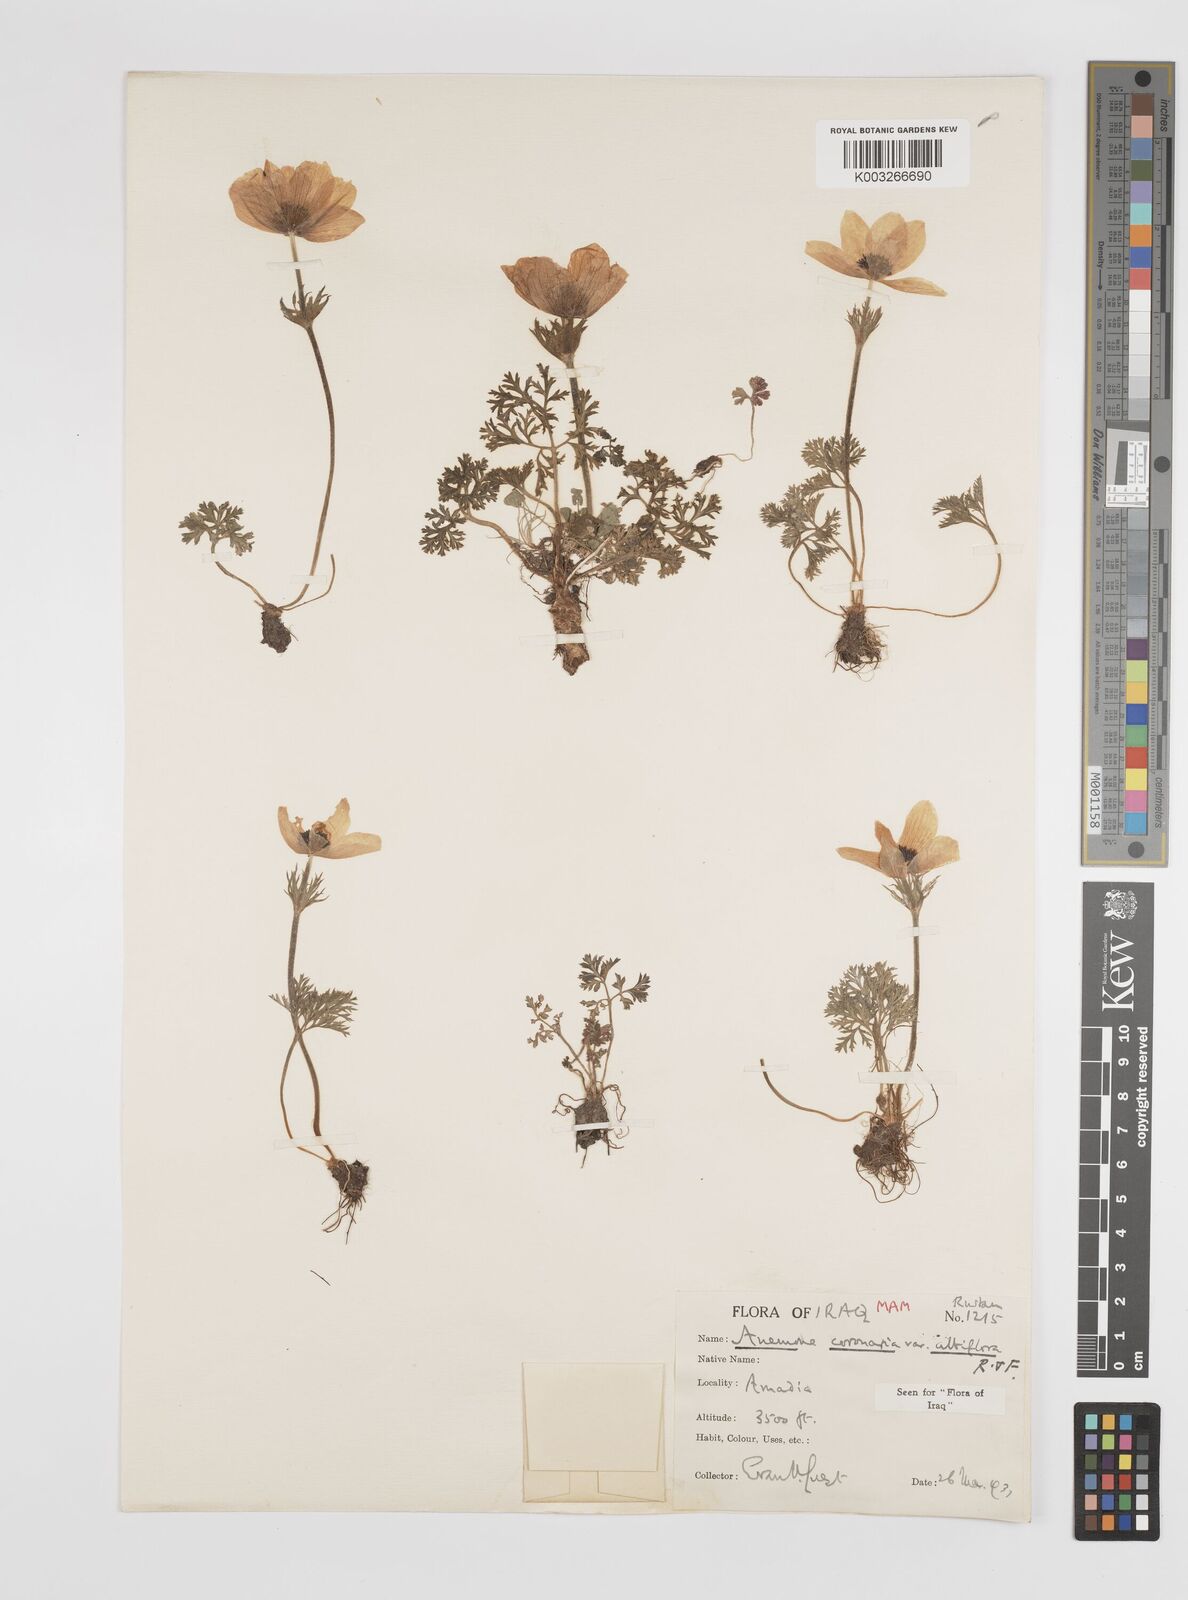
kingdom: Plantae
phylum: Tracheophyta
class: Magnoliopsida
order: Ranunculales
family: Ranunculaceae
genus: Anemone
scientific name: Anemone coronaria
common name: Poppy anemone
